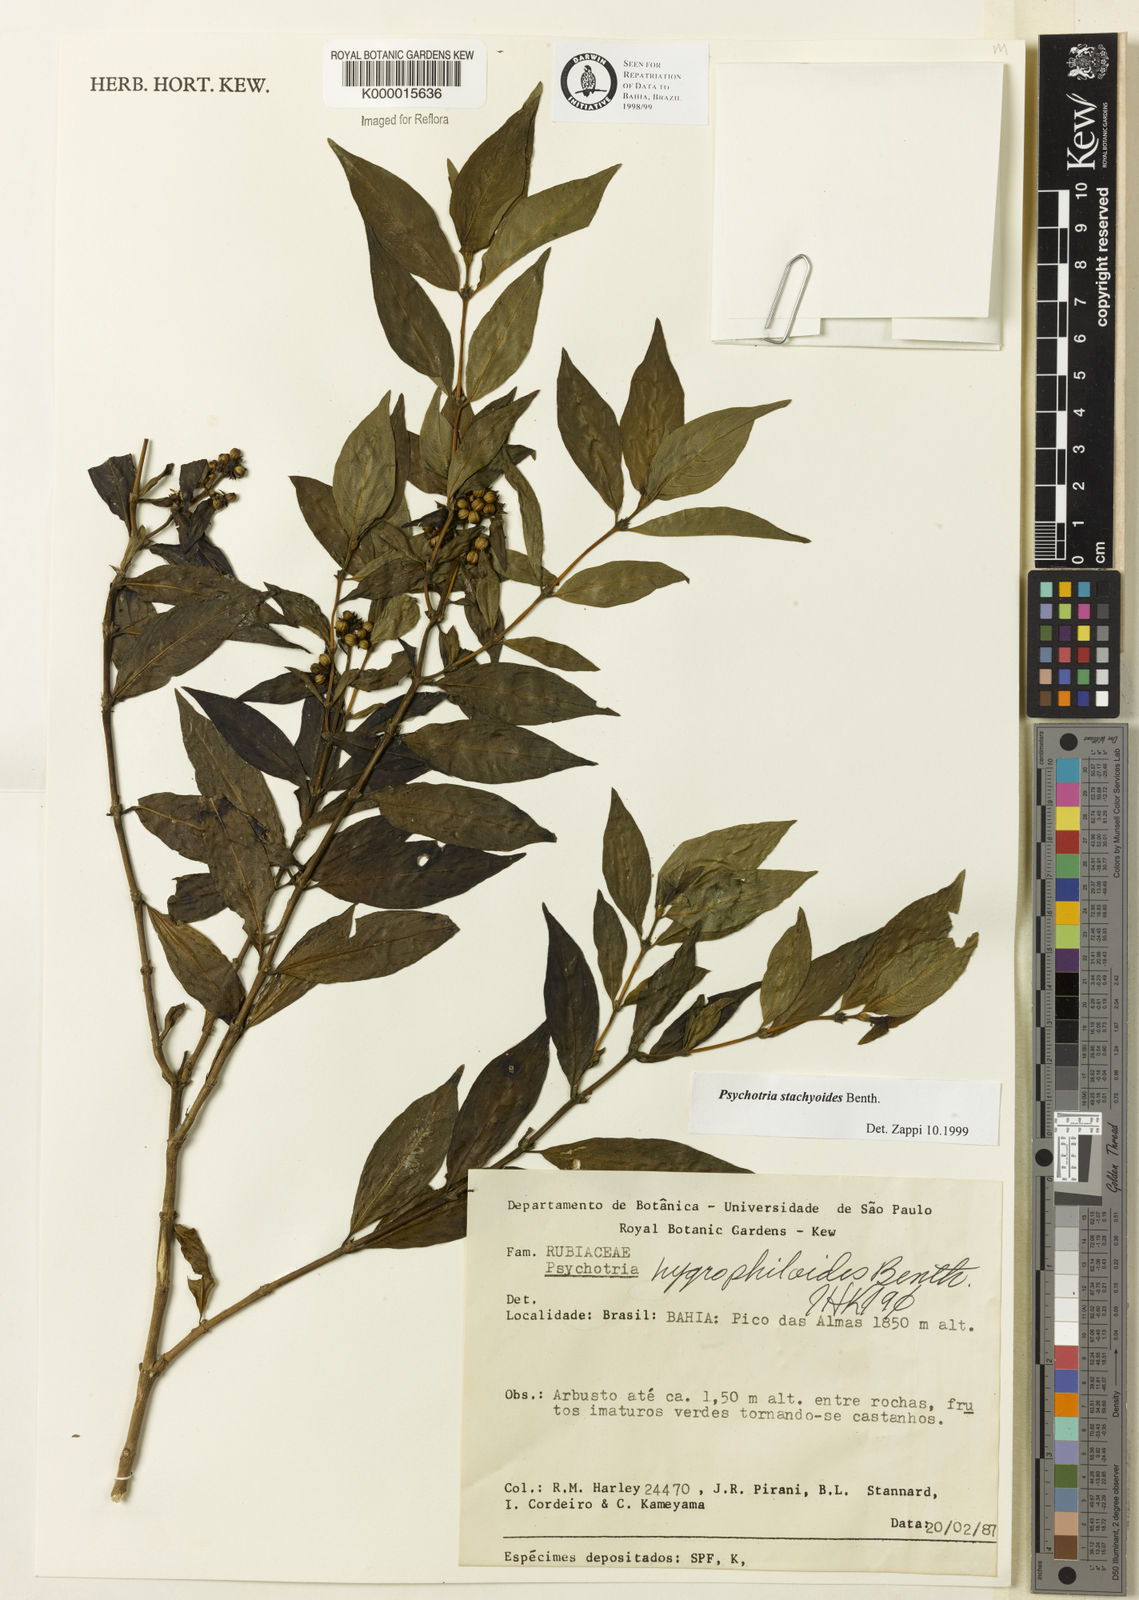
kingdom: Plantae
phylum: Tracheophyta
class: Magnoliopsida
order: Gentianales
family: Rubiaceae
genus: Psychotria
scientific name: Psychotria stachyoides
